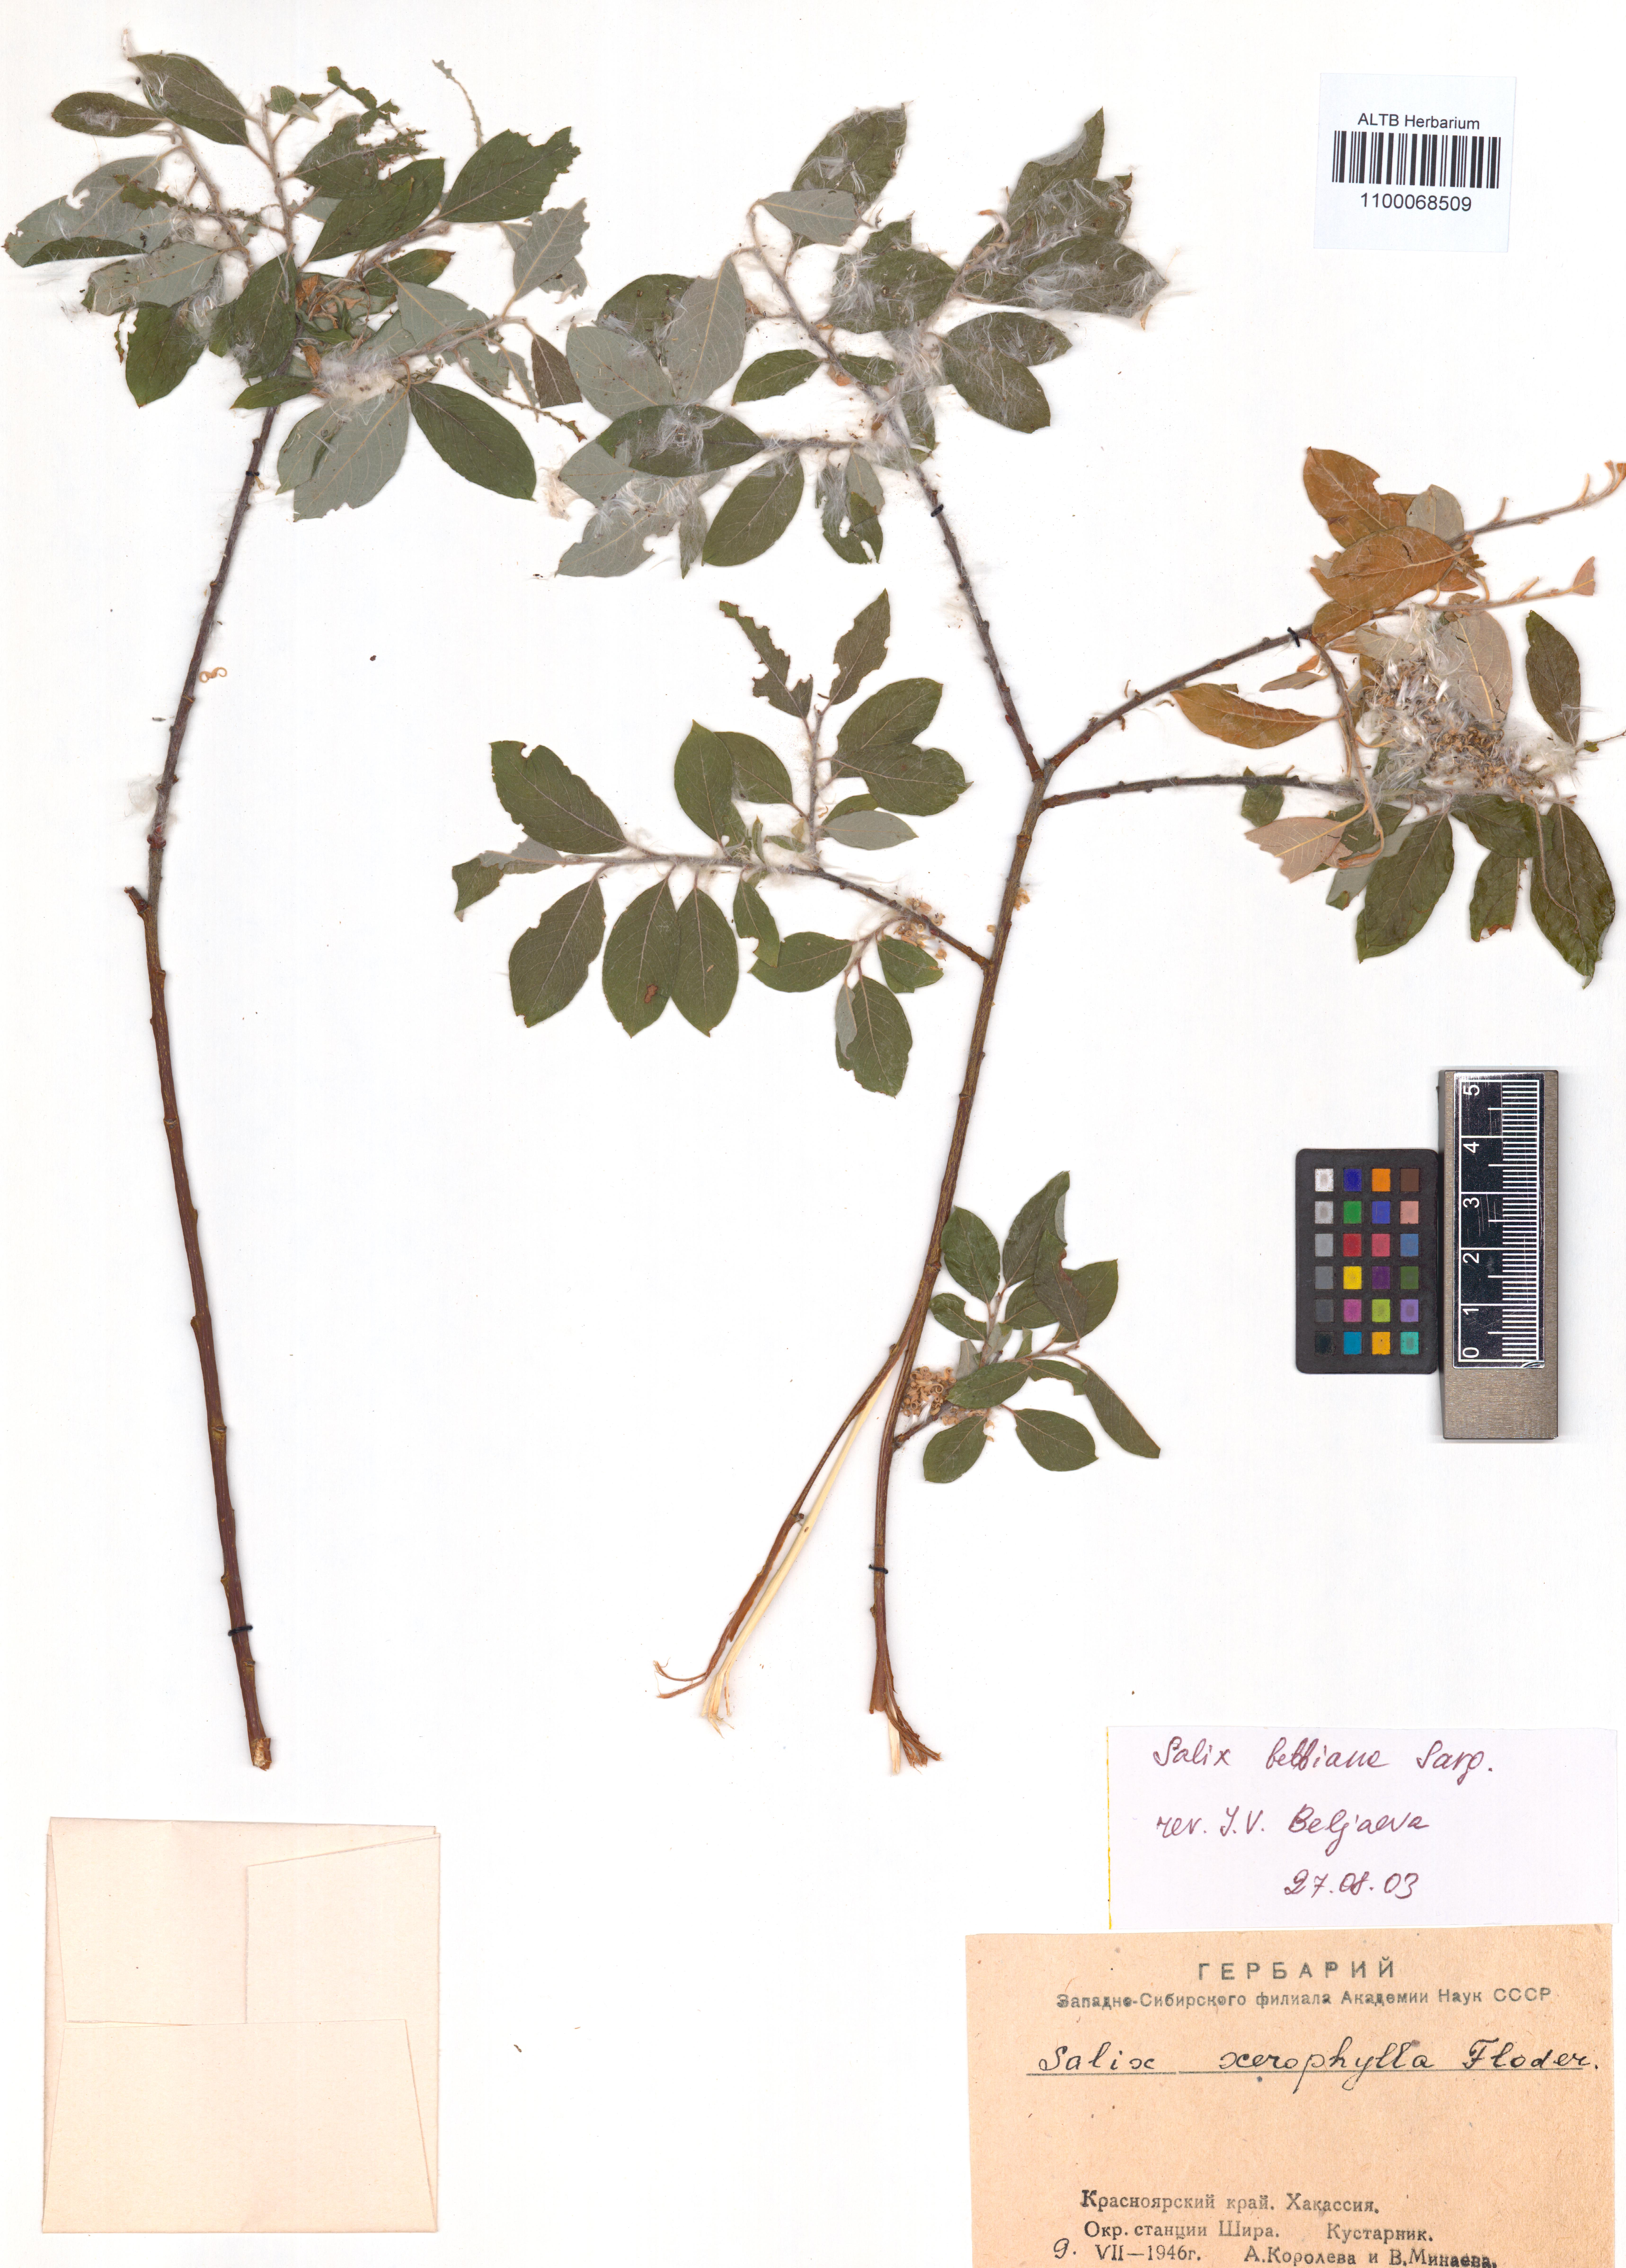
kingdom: Plantae
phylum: Tracheophyta
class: Magnoliopsida
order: Malpighiales
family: Salicaceae
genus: Salix
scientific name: Salix bebbiana
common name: Bebb's willow
